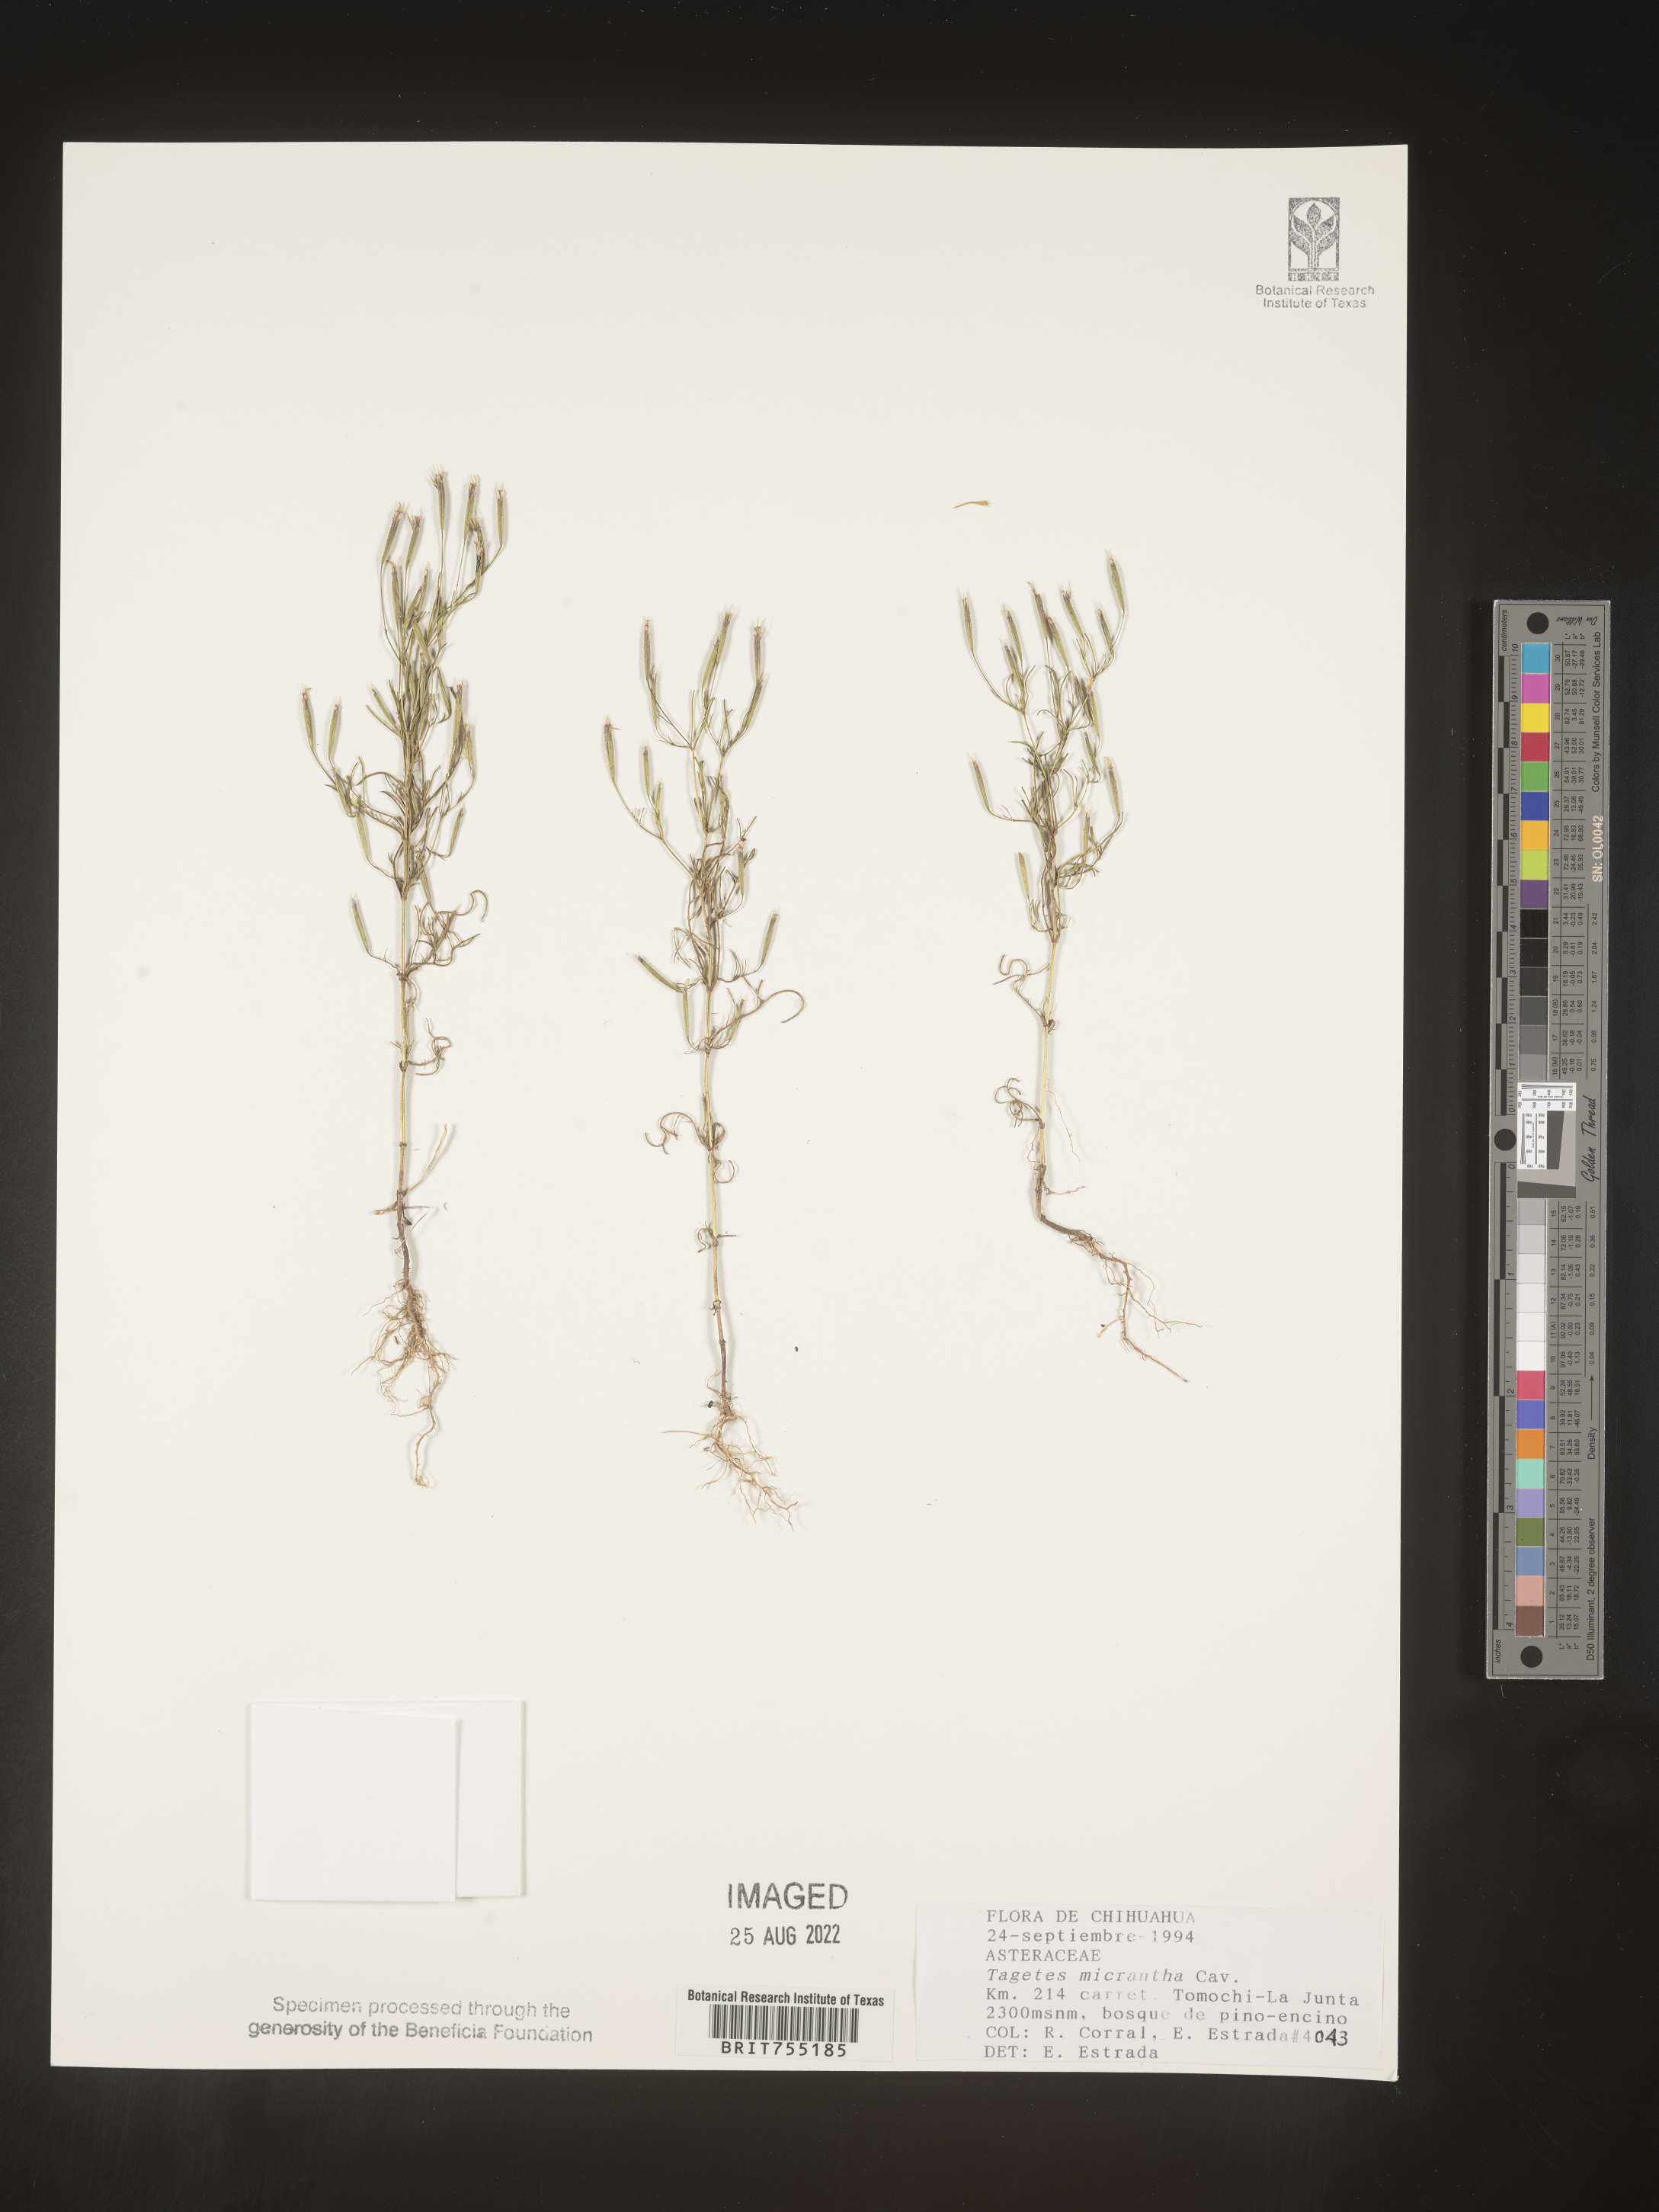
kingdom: Plantae
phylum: Tracheophyta
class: Magnoliopsida
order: Asterales
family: Asteraceae
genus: Tagetes
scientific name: Tagetes
